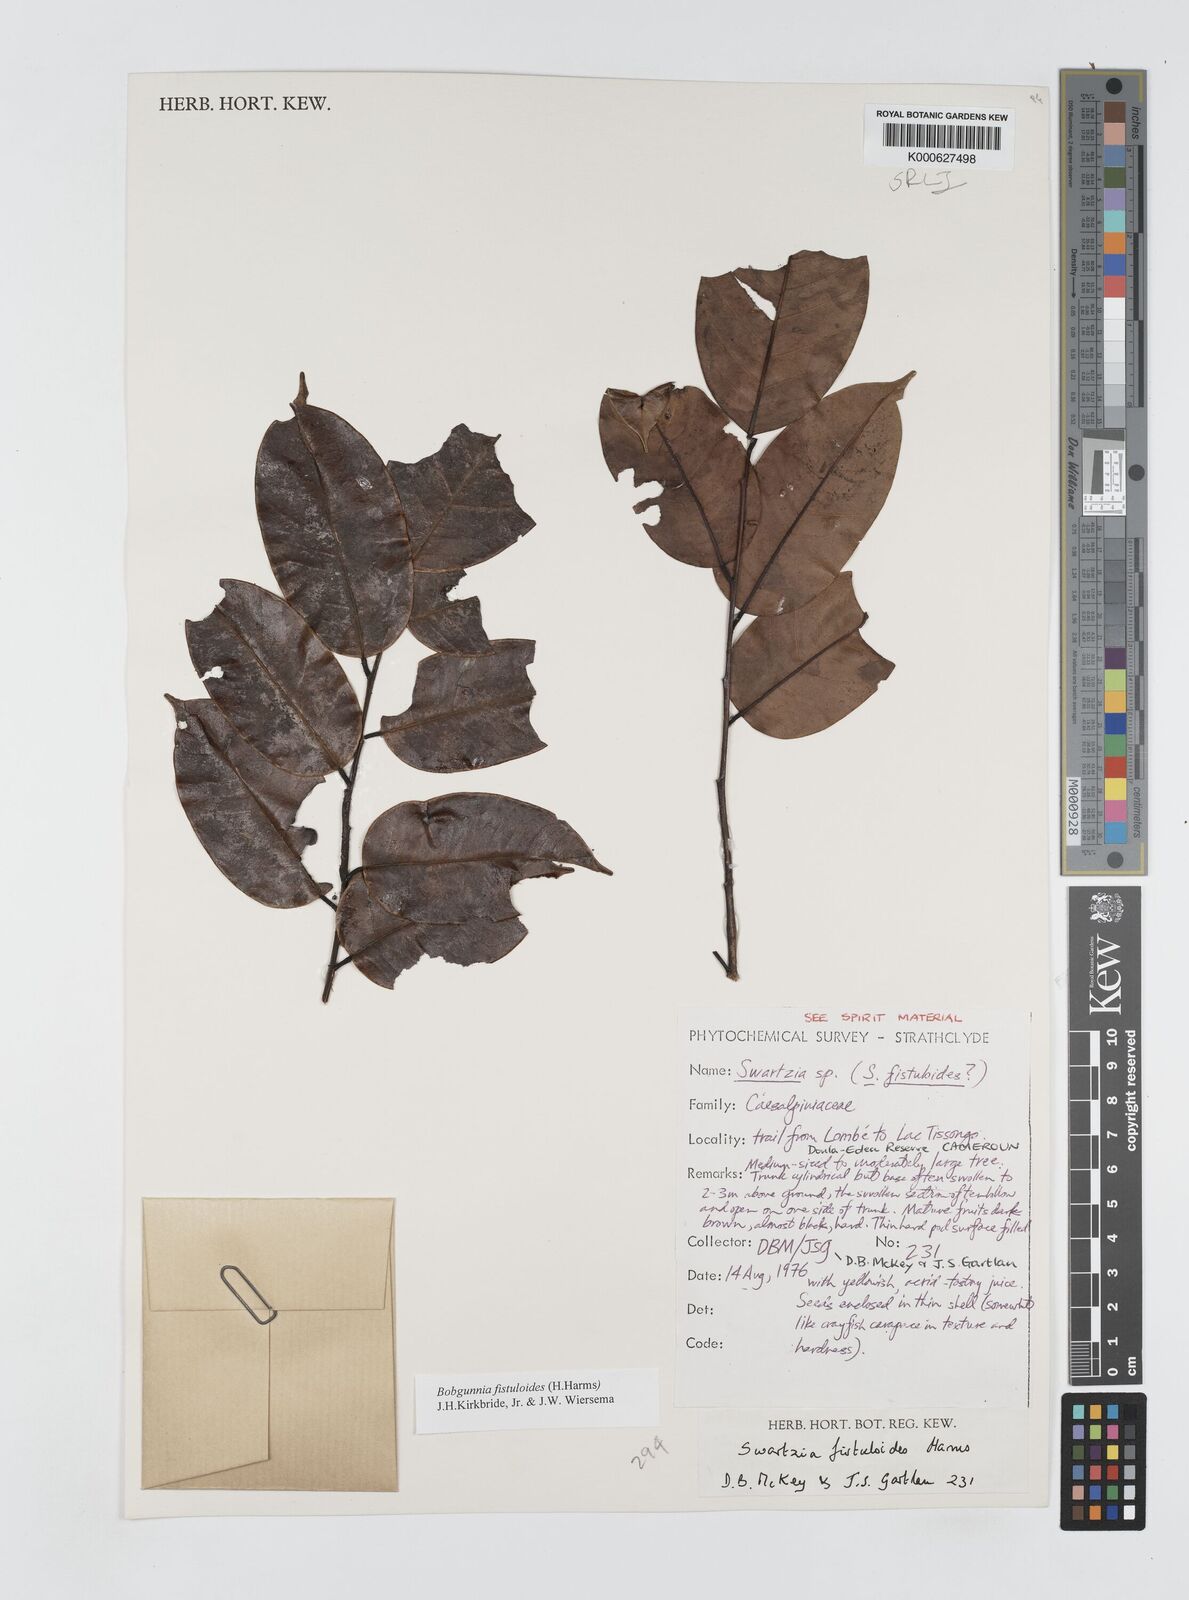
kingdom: Plantae
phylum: Tracheophyta
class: Magnoliopsida
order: Fabales
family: Fabaceae
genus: Bobgunnia
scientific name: Bobgunnia fistuloides
